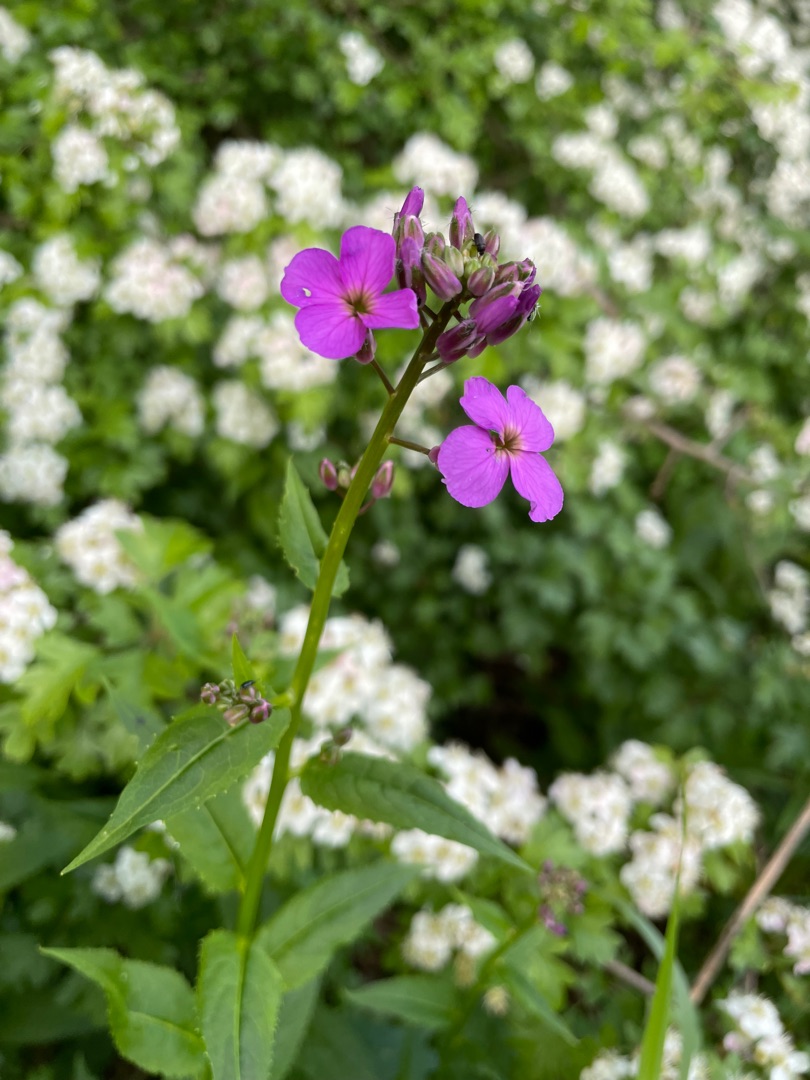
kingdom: Plantae
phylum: Tracheophyta
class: Magnoliopsida
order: Brassicales
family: Brassicaceae
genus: Hesperis
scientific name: Hesperis matronalis
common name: Aftenstjerne
